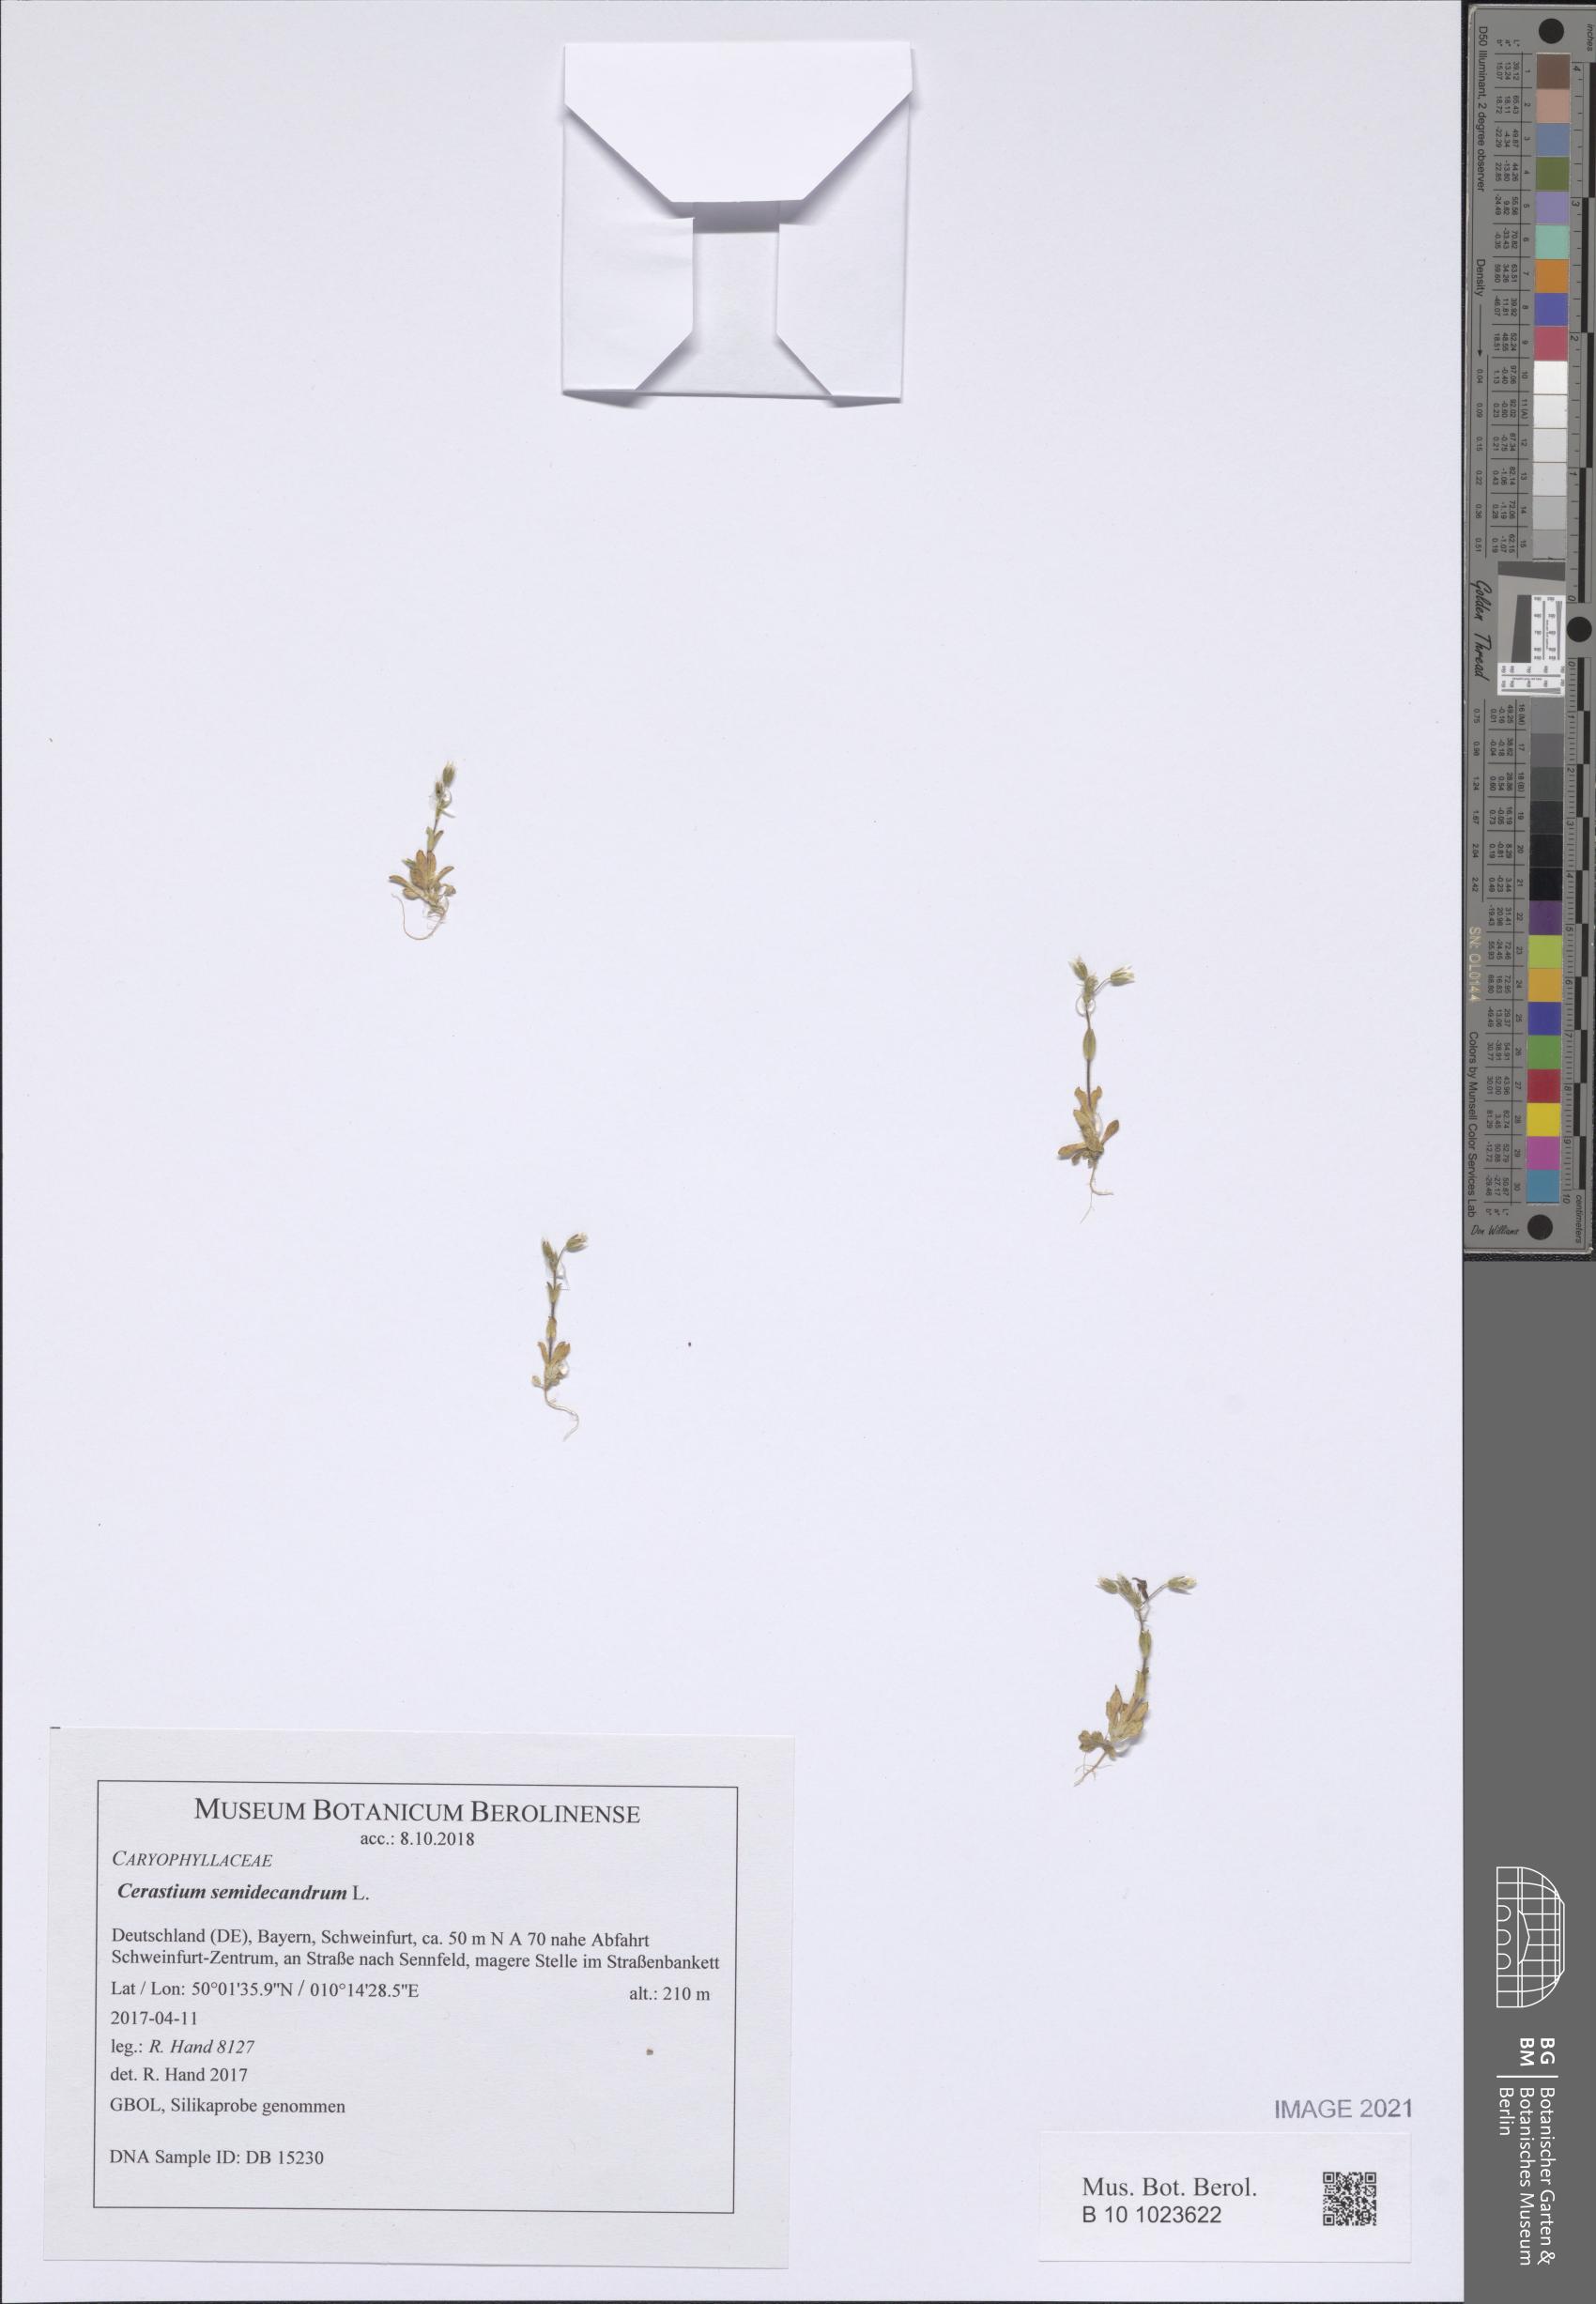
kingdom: Plantae
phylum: Tracheophyta
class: Magnoliopsida
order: Caryophyllales
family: Caryophyllaceae
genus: Cerastium
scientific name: Cerastium semidecandrum
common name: Little mouse-ear
